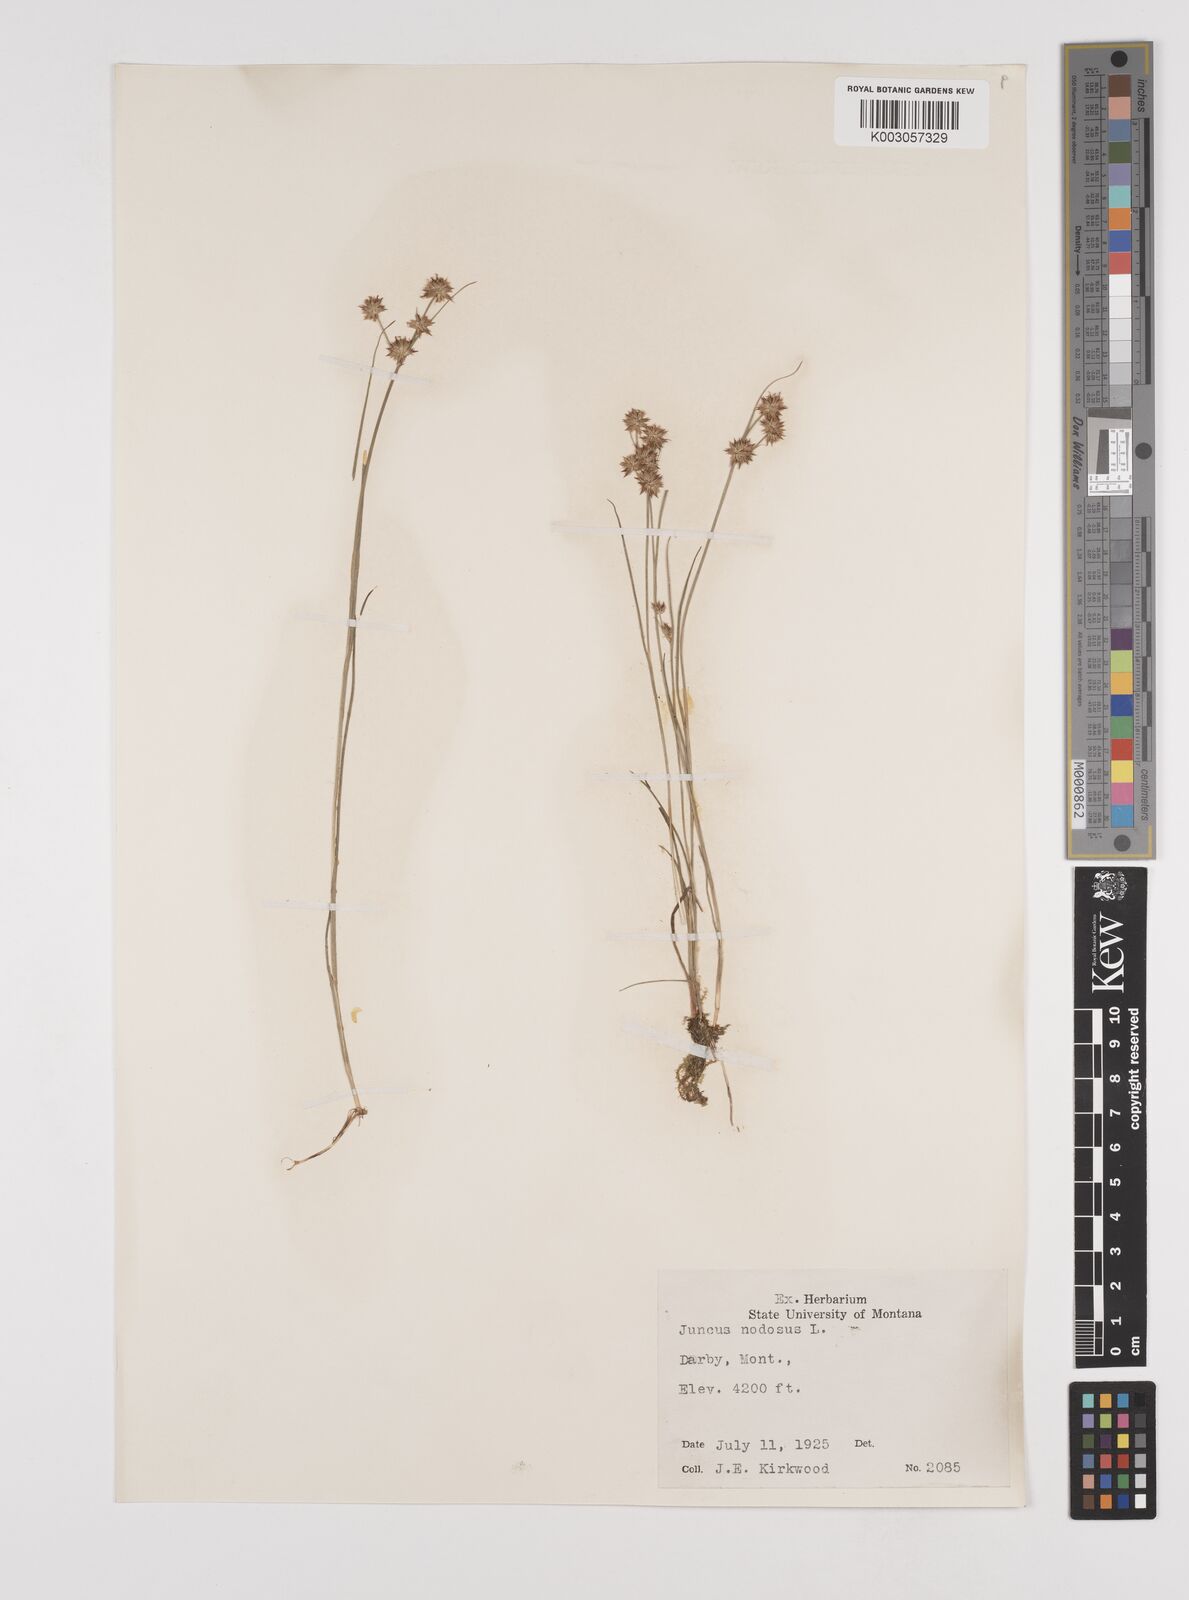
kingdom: Plantae
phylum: Tracheophyta
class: Liliopsida
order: Poales
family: Juncaceae
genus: Juncus
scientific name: Juncus nodosus
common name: Knotted rush
